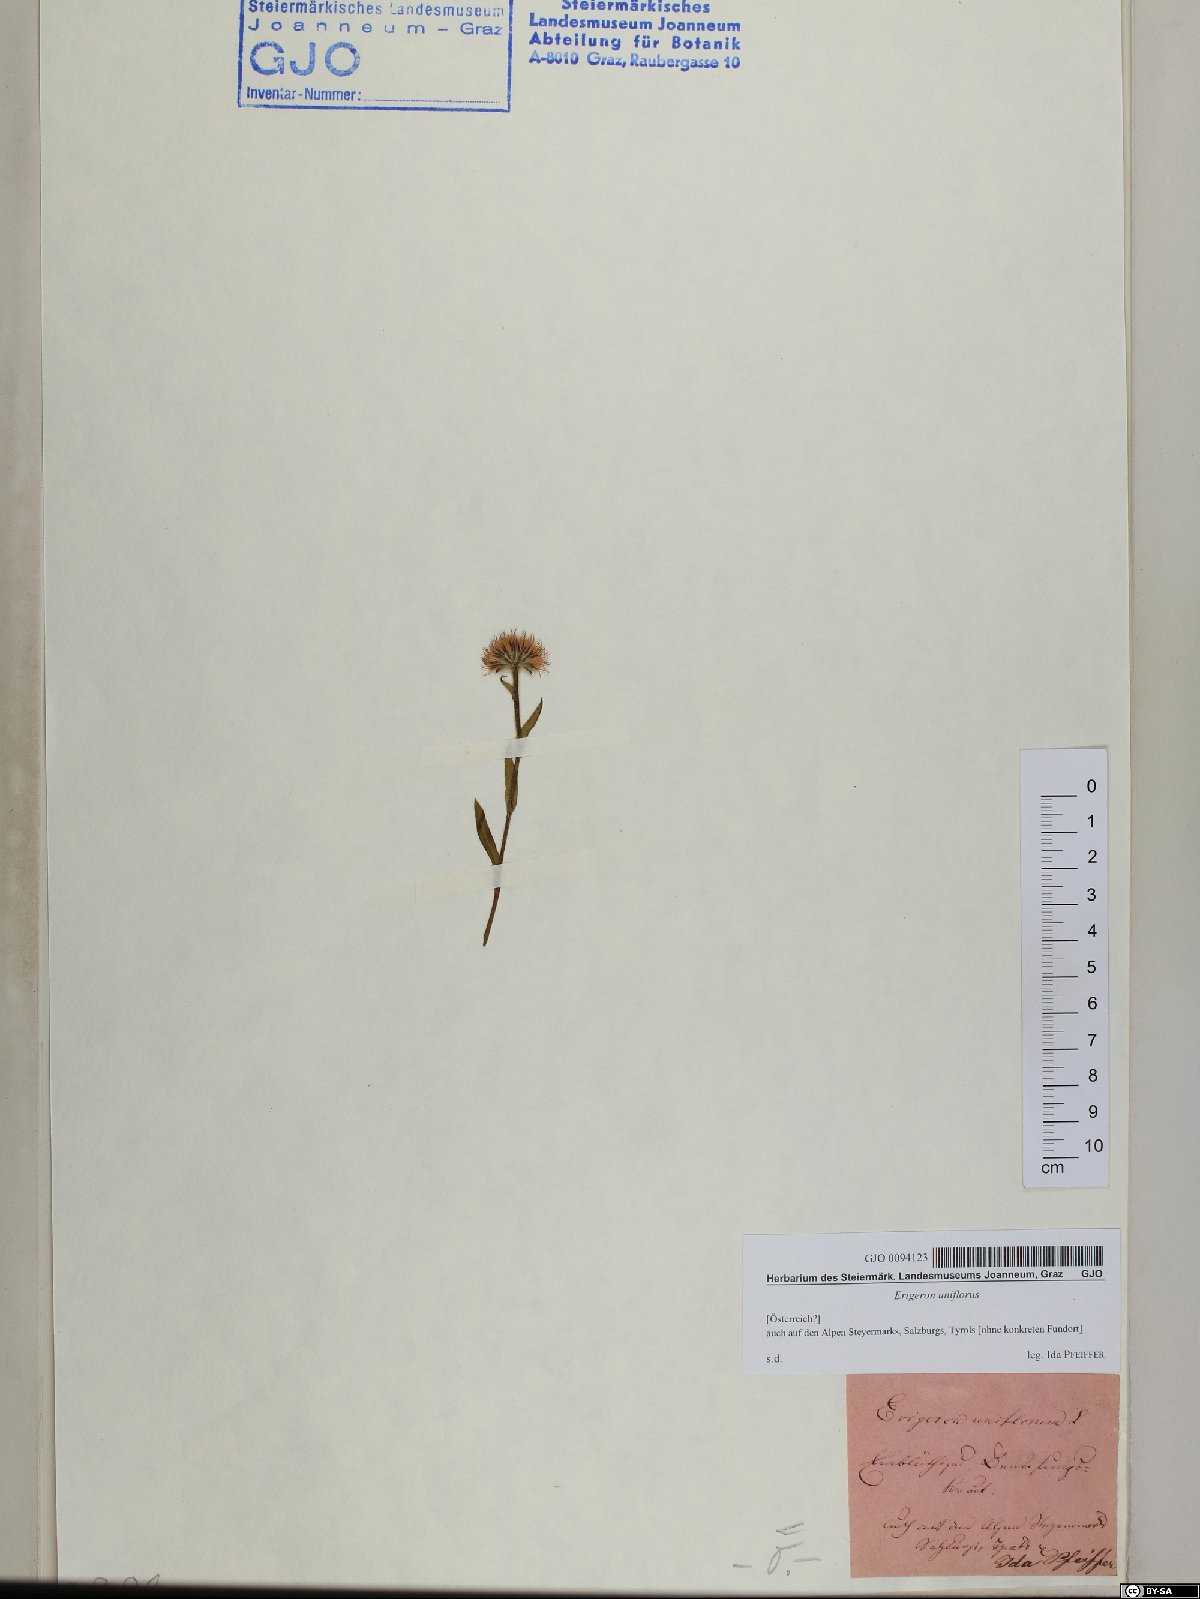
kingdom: Plantae
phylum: Tracheophyta
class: Magnoliopsida
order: Asterales
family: Asteraceae
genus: Erigeron
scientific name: Erigeron uniflorus
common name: Northern daisy
